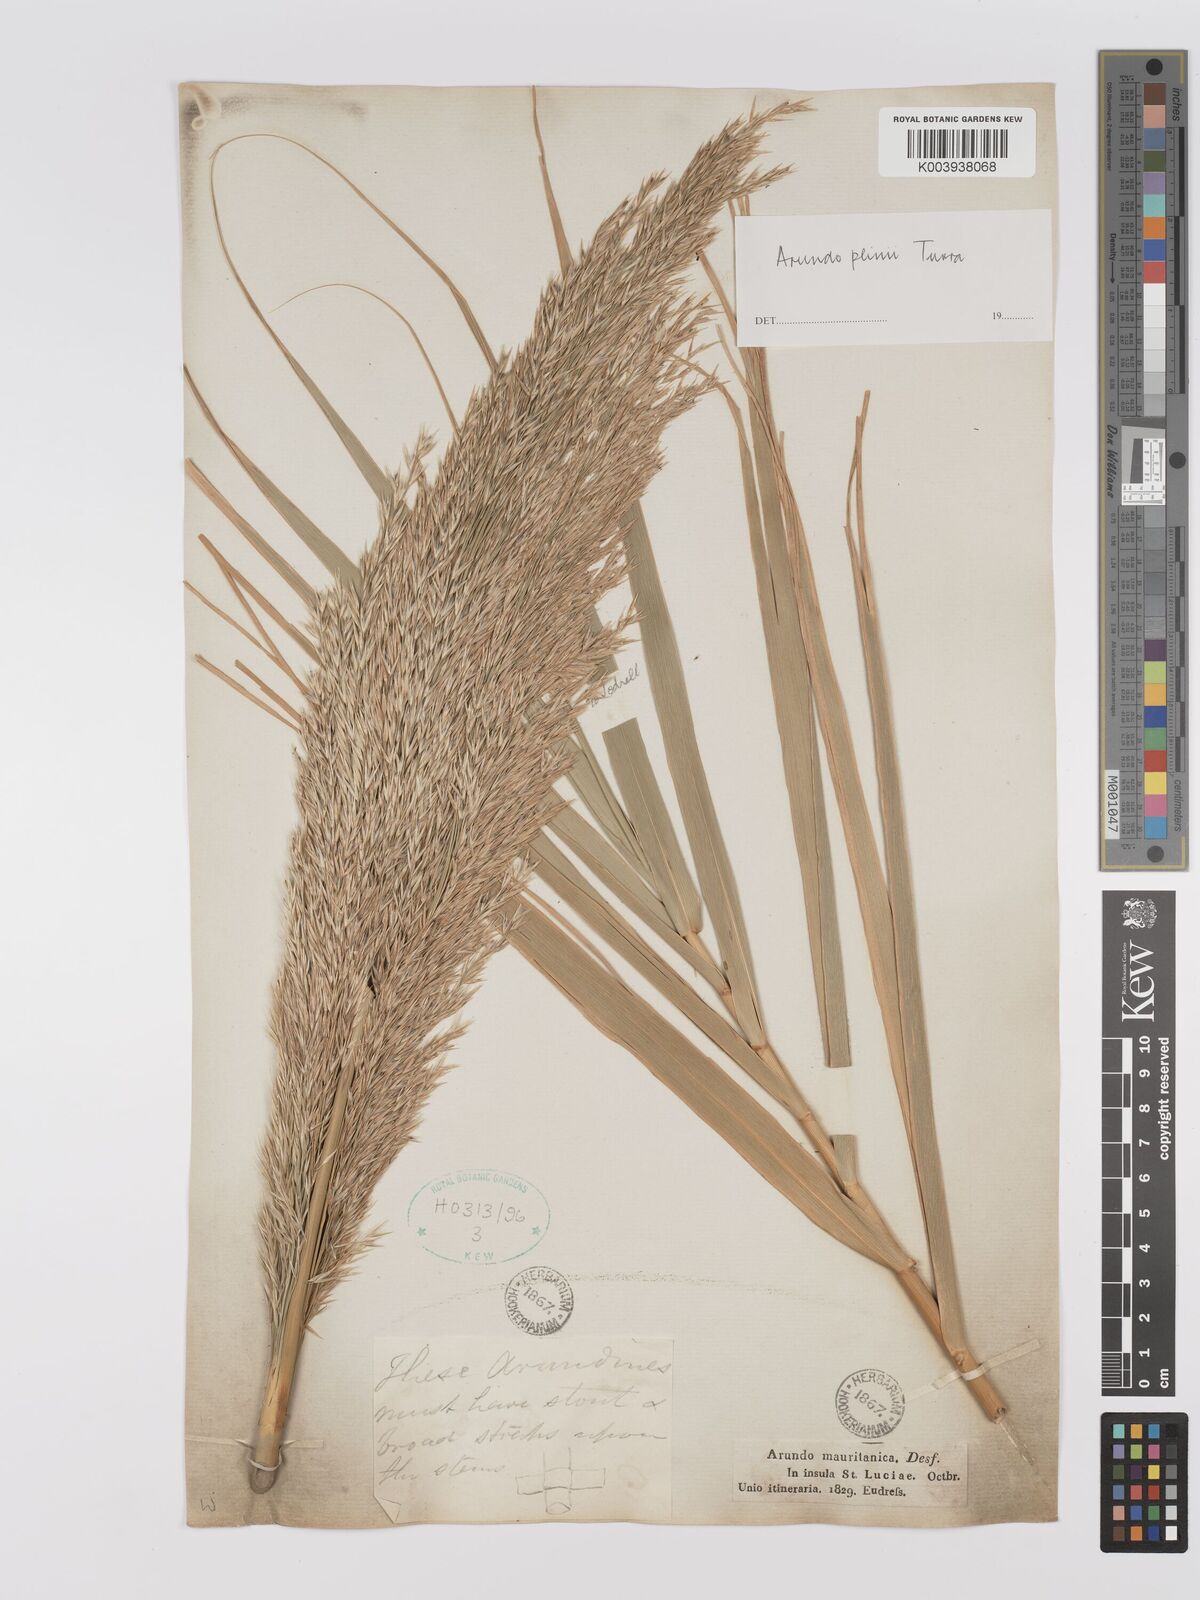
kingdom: Plantae
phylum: Tracheophyta
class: Liliopsida
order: Poales
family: Poaceae
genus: Arundo
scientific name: Arundo donax
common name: Giant reed
